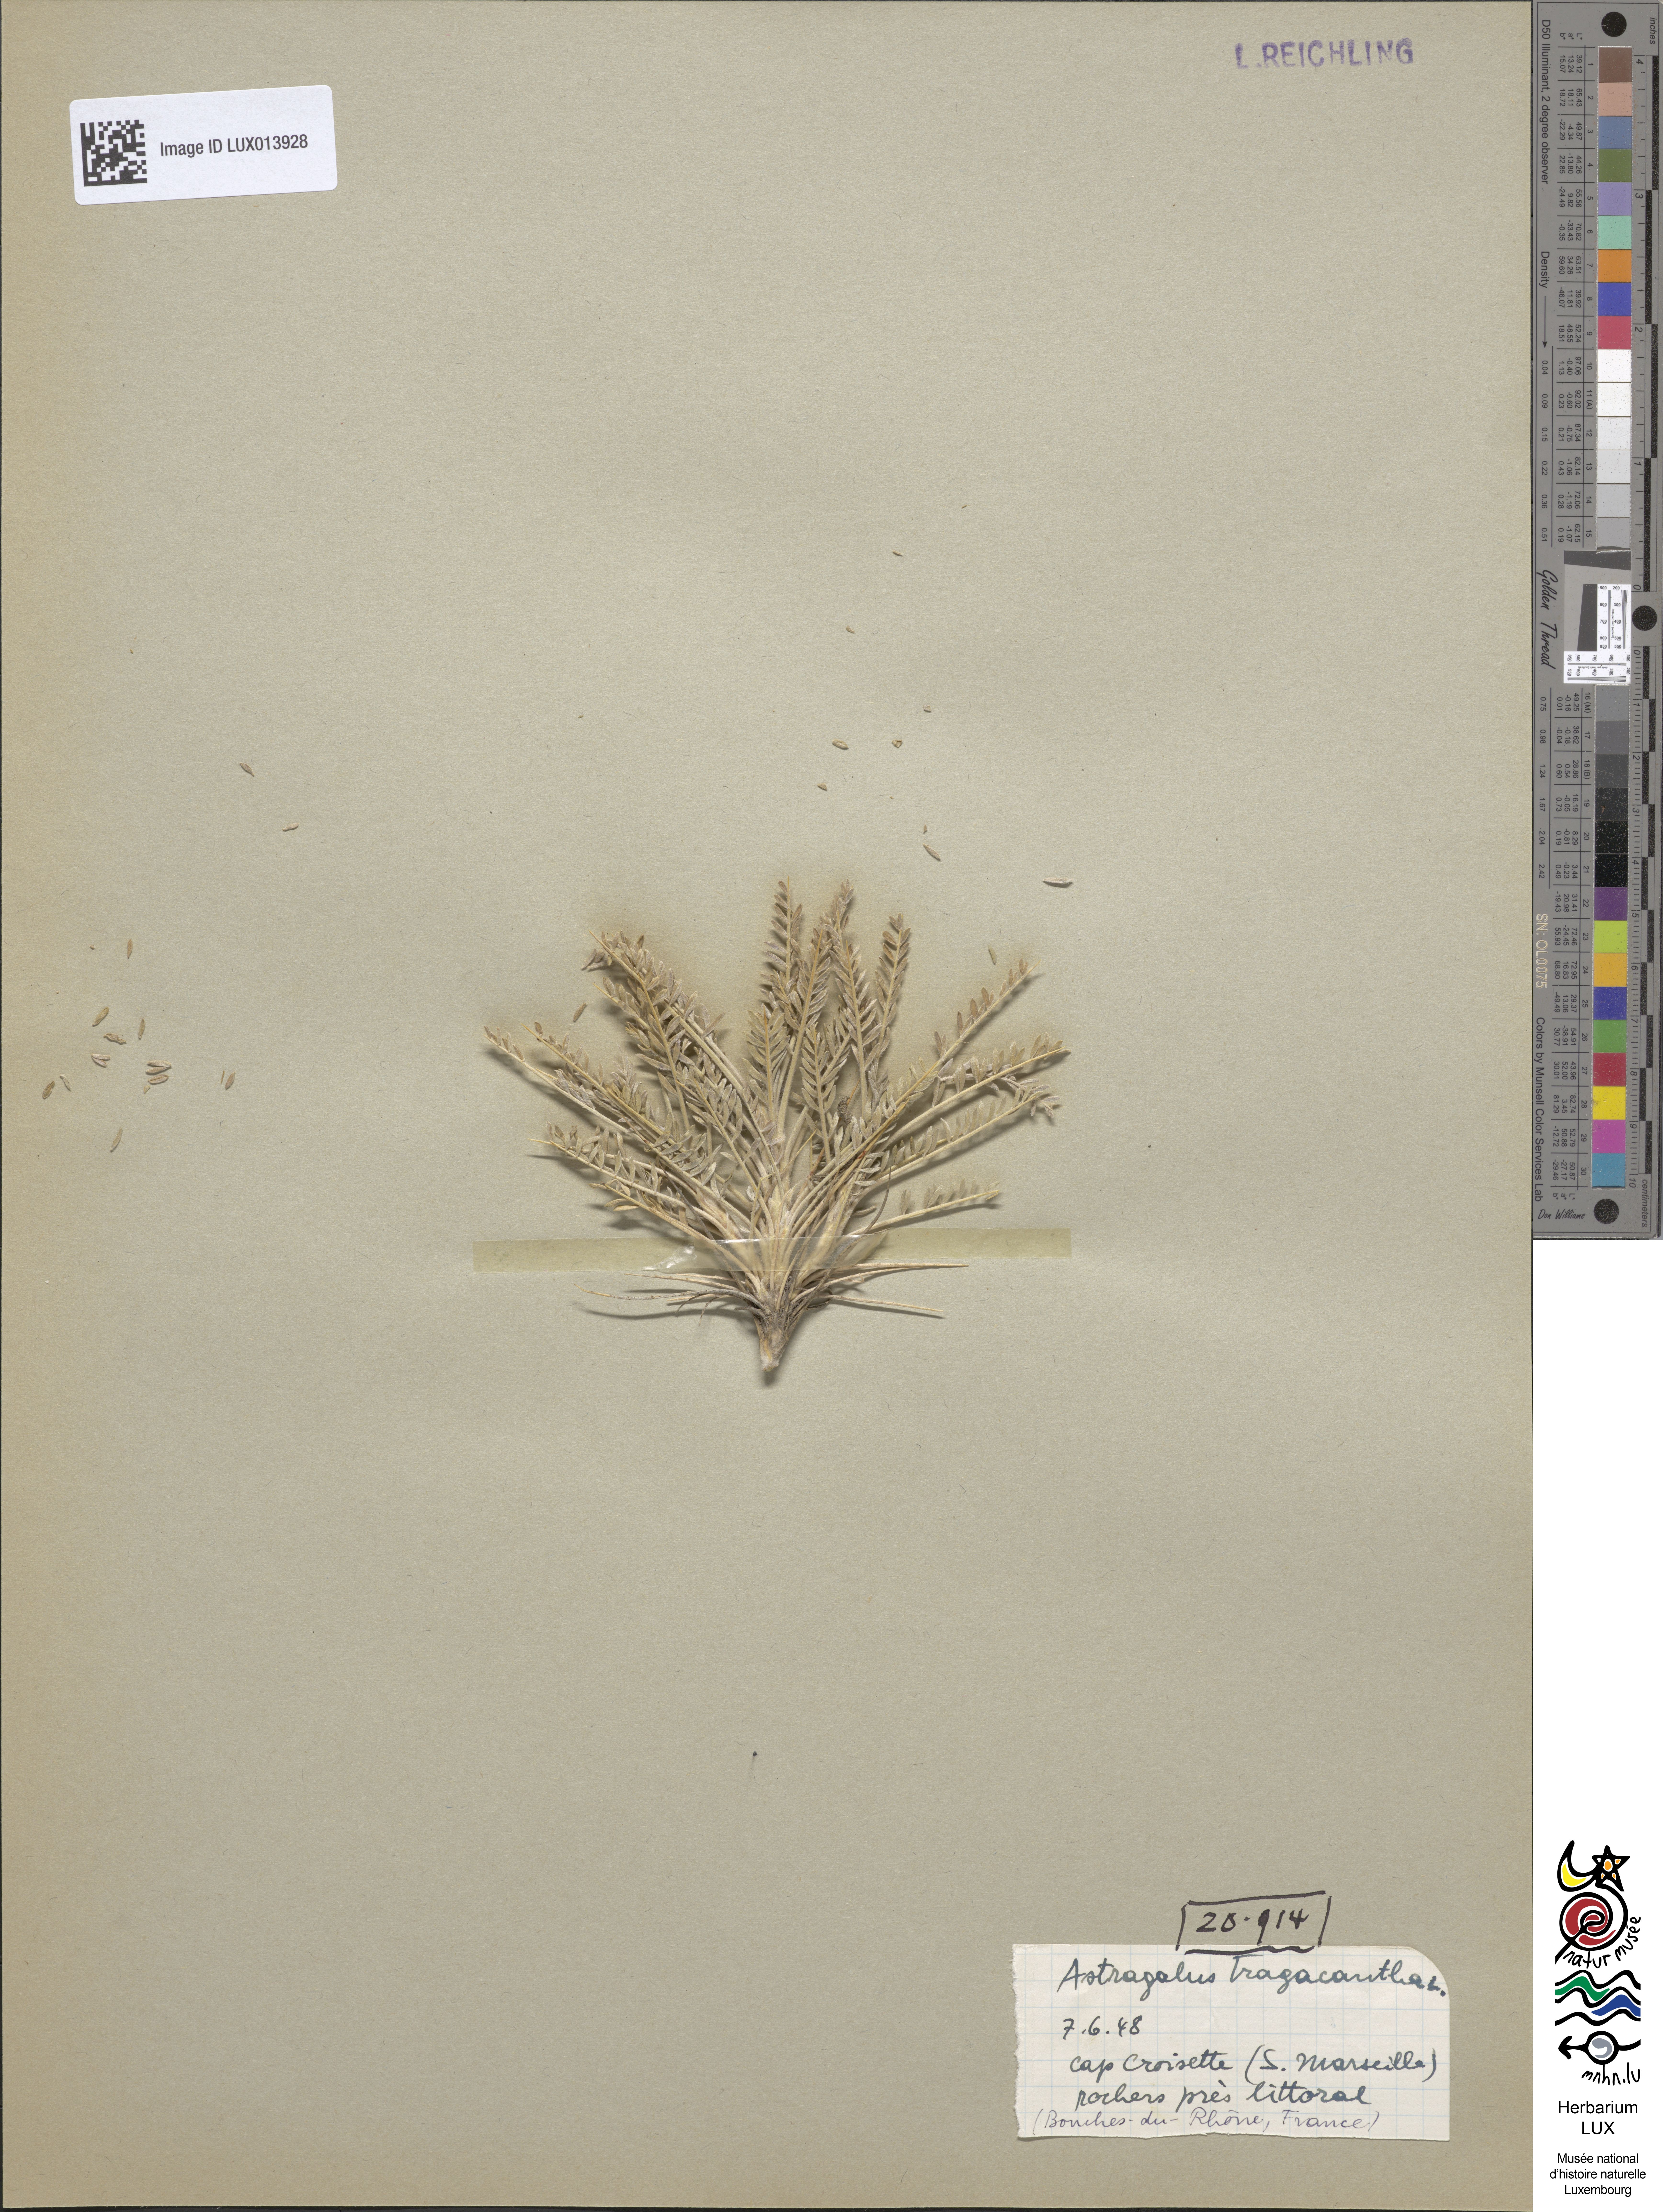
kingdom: Plantae
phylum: Tracheophyta
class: Magnoliopsida
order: Fabales
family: Fabaceae
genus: Astragalus
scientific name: Astragalus tragacantha
